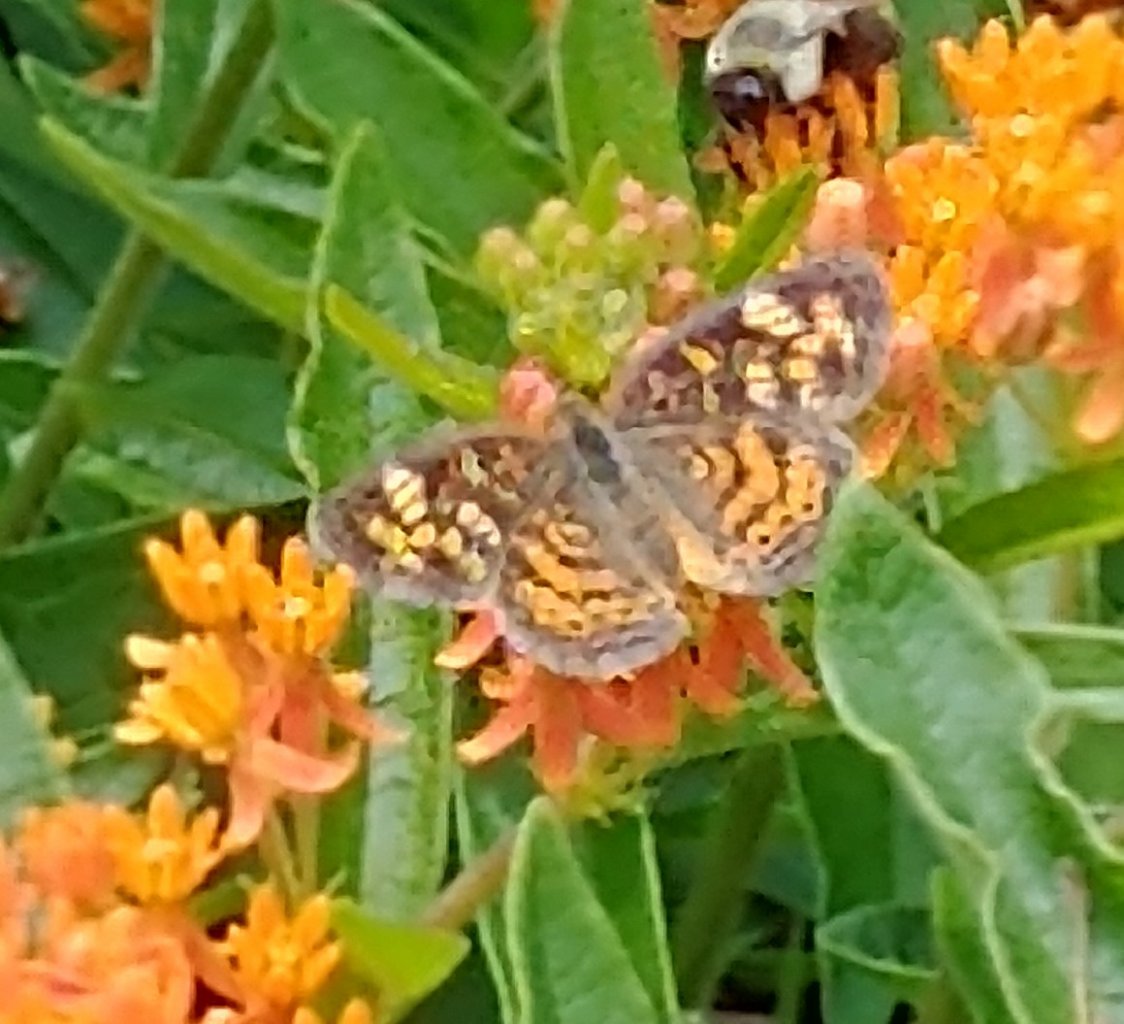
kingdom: Animalia
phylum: Arthropoda
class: Insecta
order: Lepidoptera
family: Nymphalidae
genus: Phyciodes
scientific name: Phyciodes tharos
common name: Pearl Crescent
